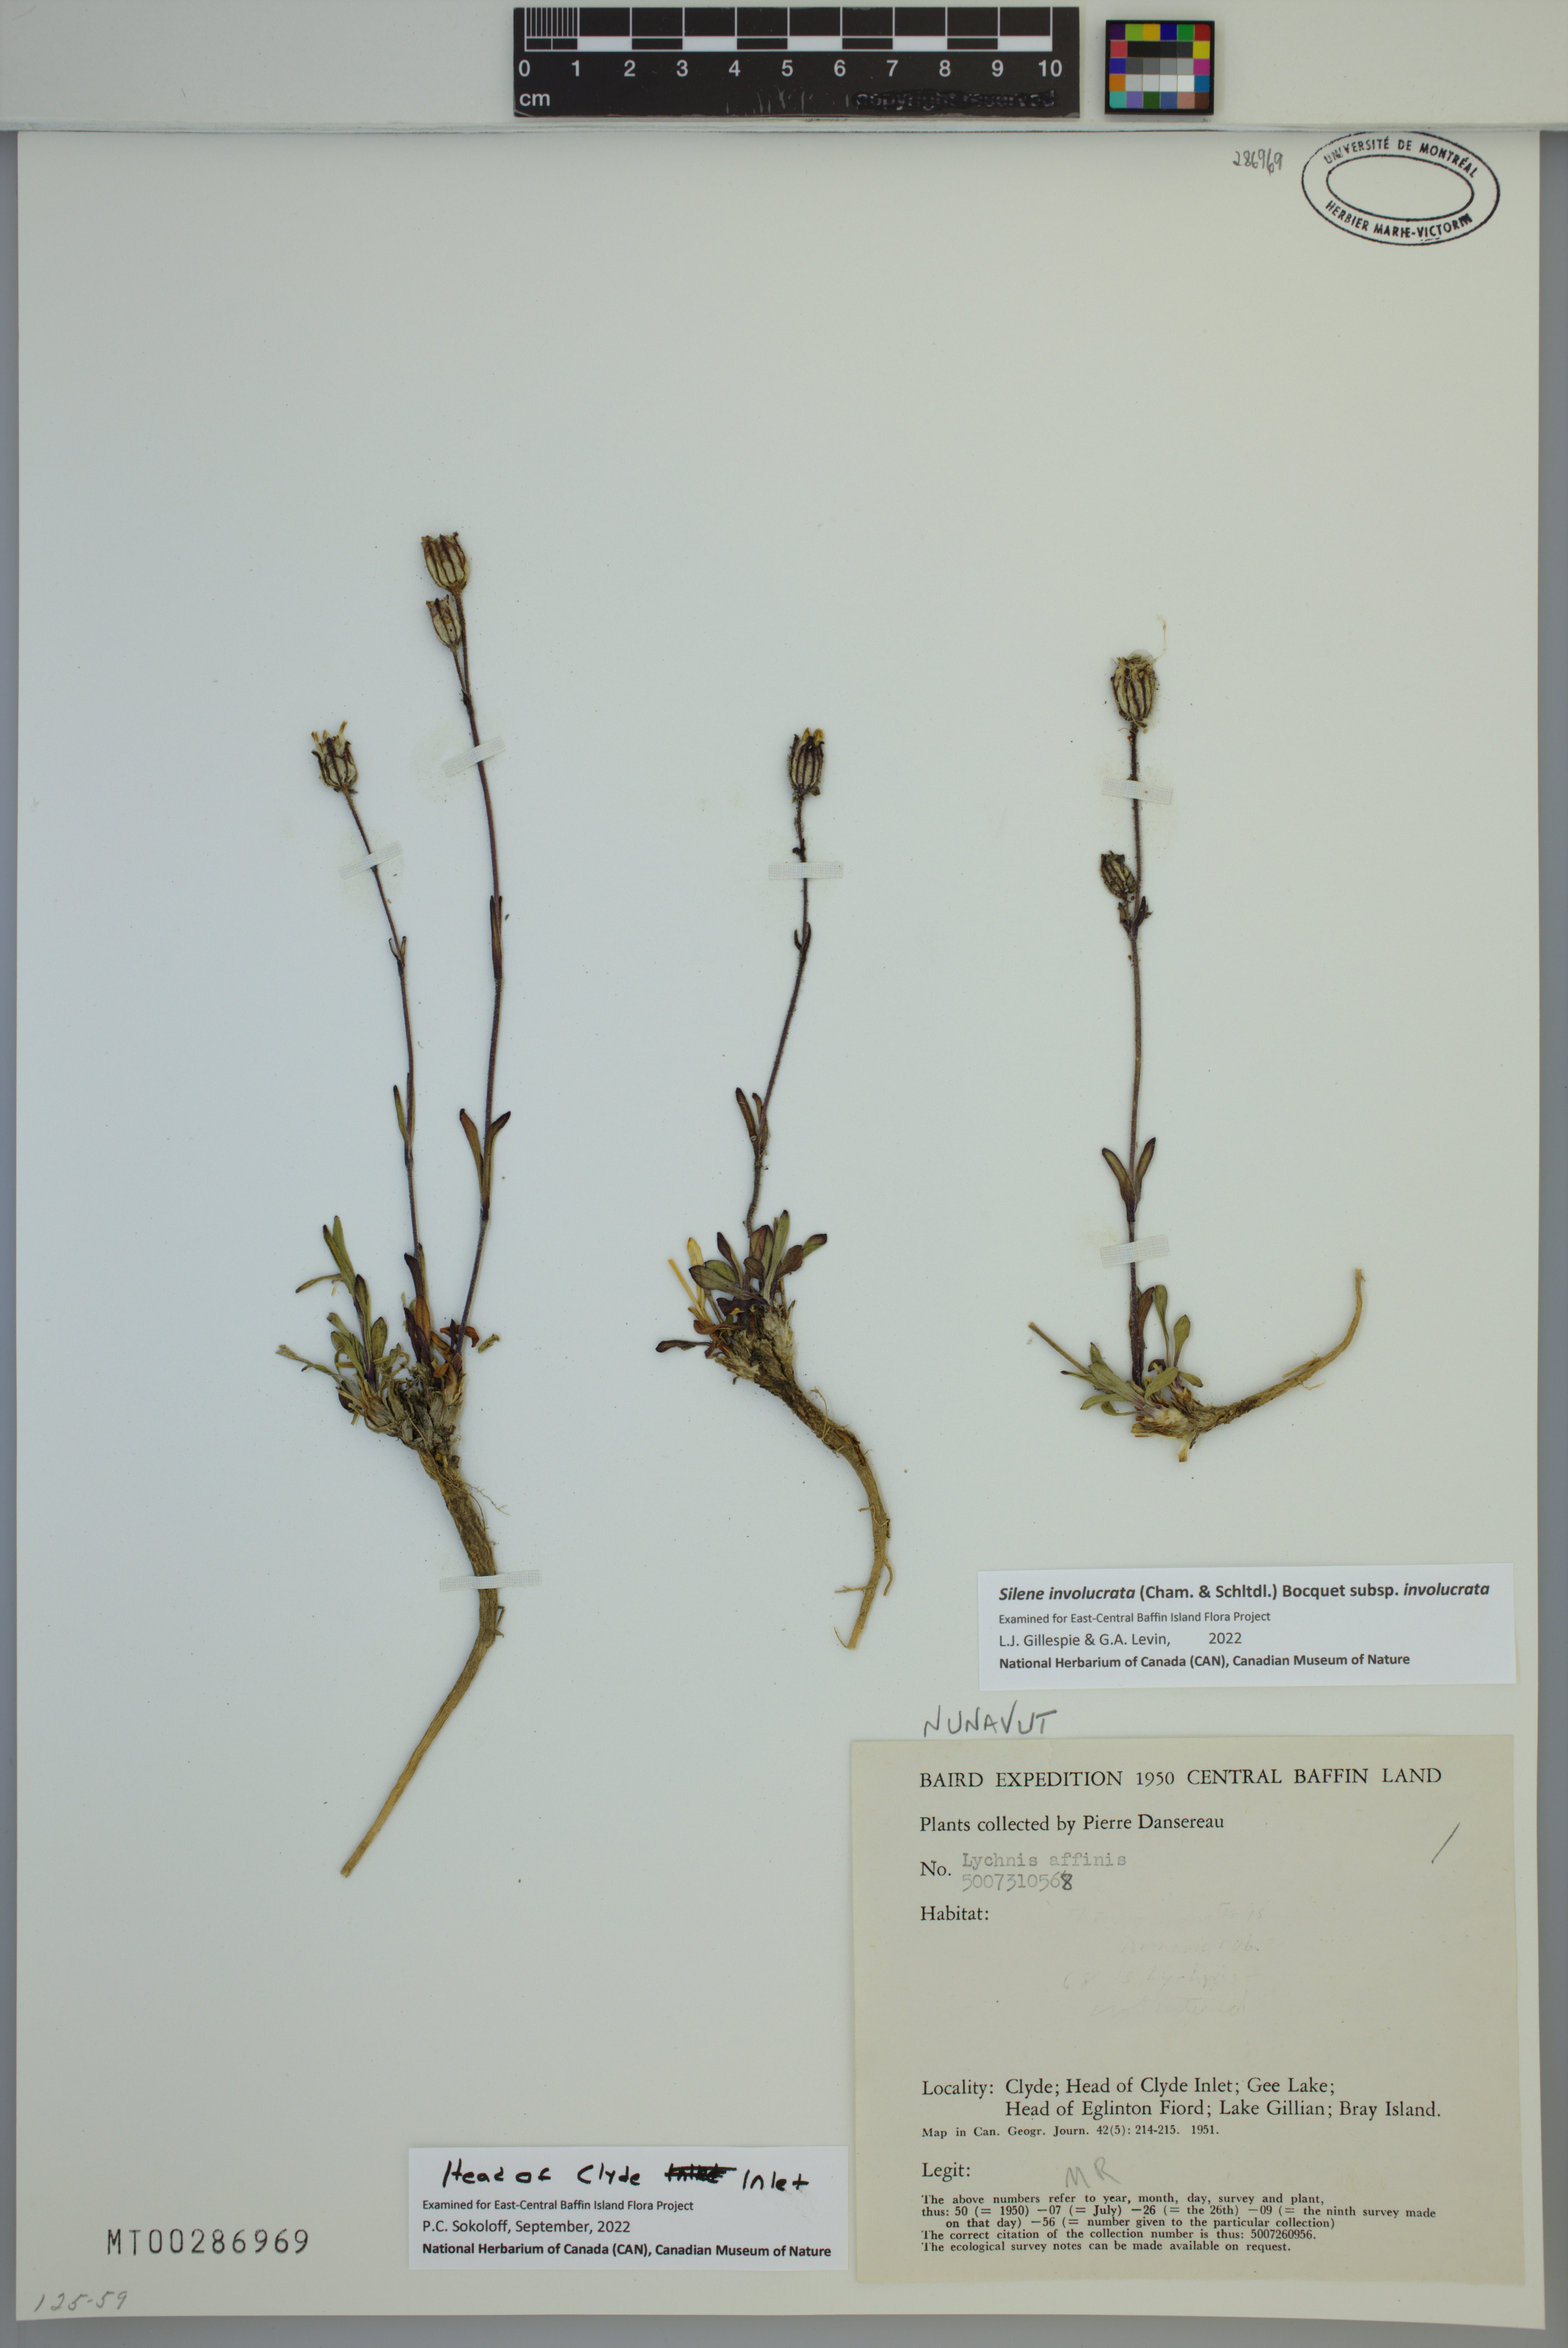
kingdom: Plantae
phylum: Tracheophyta
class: Magnoliopsida
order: Caryophyllales
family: Caryophyllaceae
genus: Silene
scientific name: Silene involucrata
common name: Greater arctic campion
